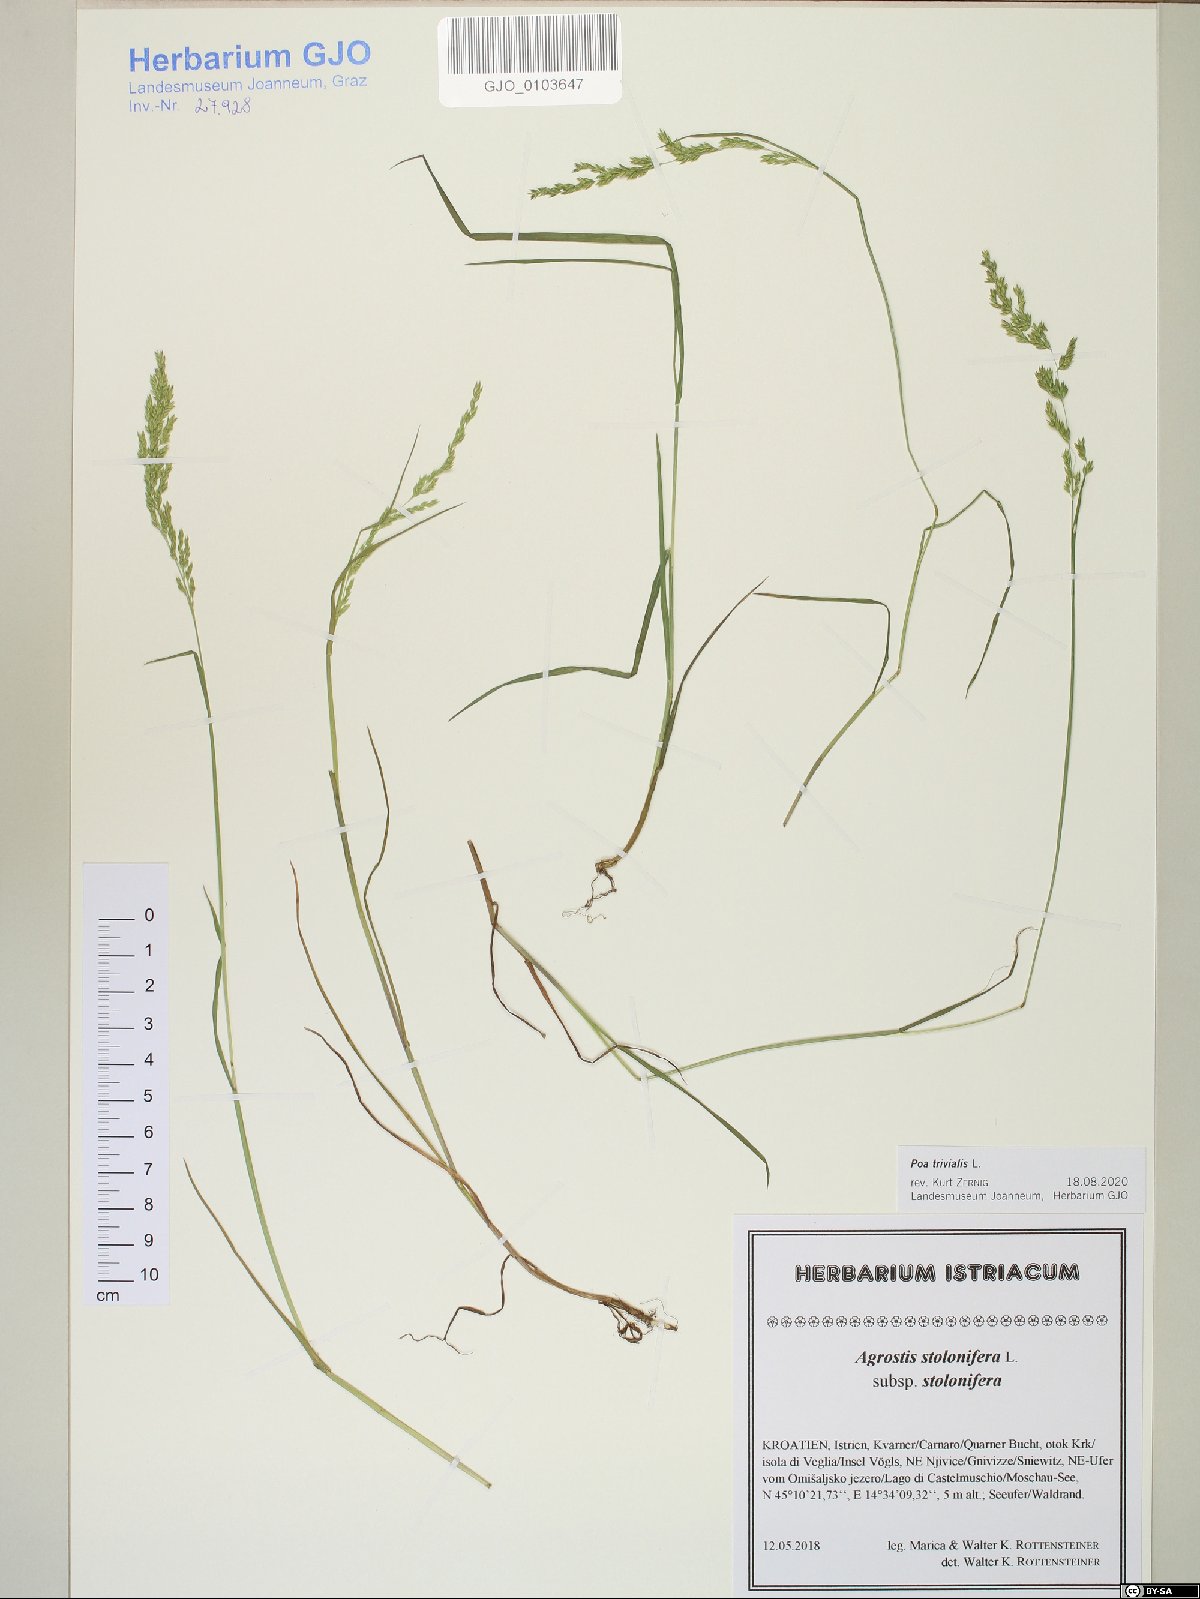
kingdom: Plantae
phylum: Tracheophyta
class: Liliopsida
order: Poales
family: Poaceae
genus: Poa
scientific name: Poa trivialis
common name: Rough bluegrass
